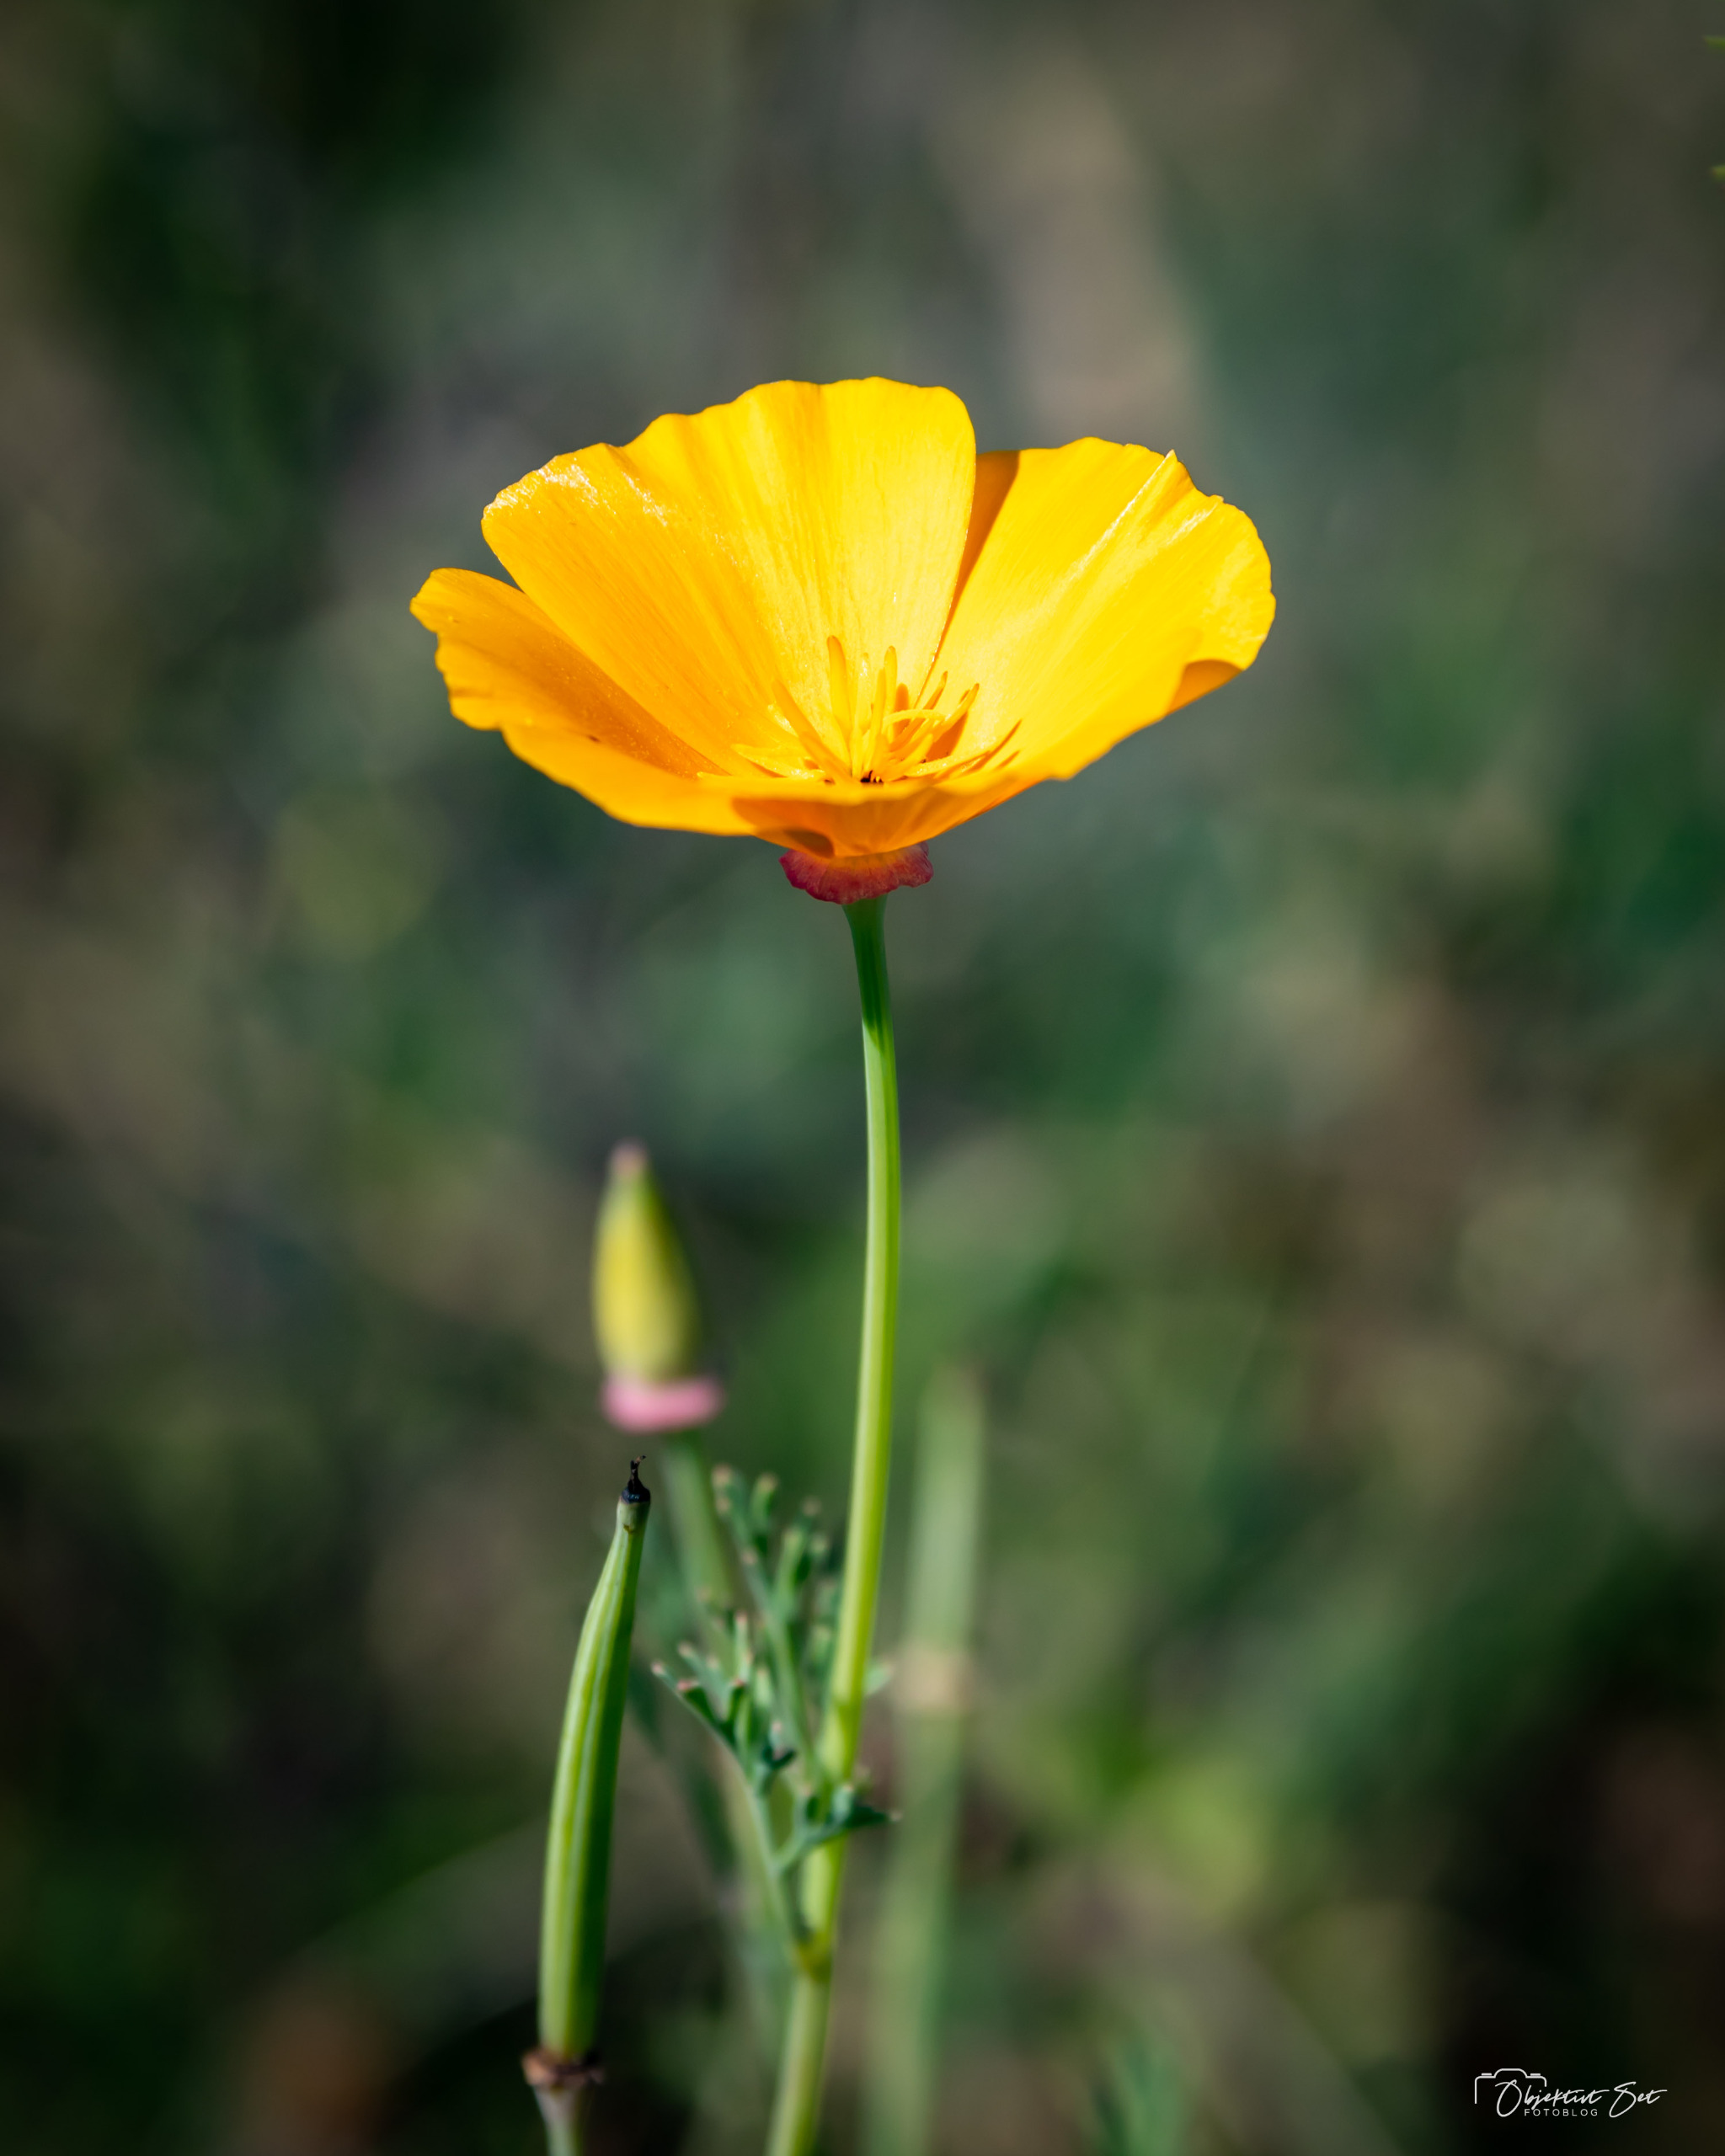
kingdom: Plantae
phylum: Tracheophyta
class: Magnoliopsida
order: Ranunculales
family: Papaveraceae
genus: Eschscholzia
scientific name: Eschscholzia californica
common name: Guldvalmue
